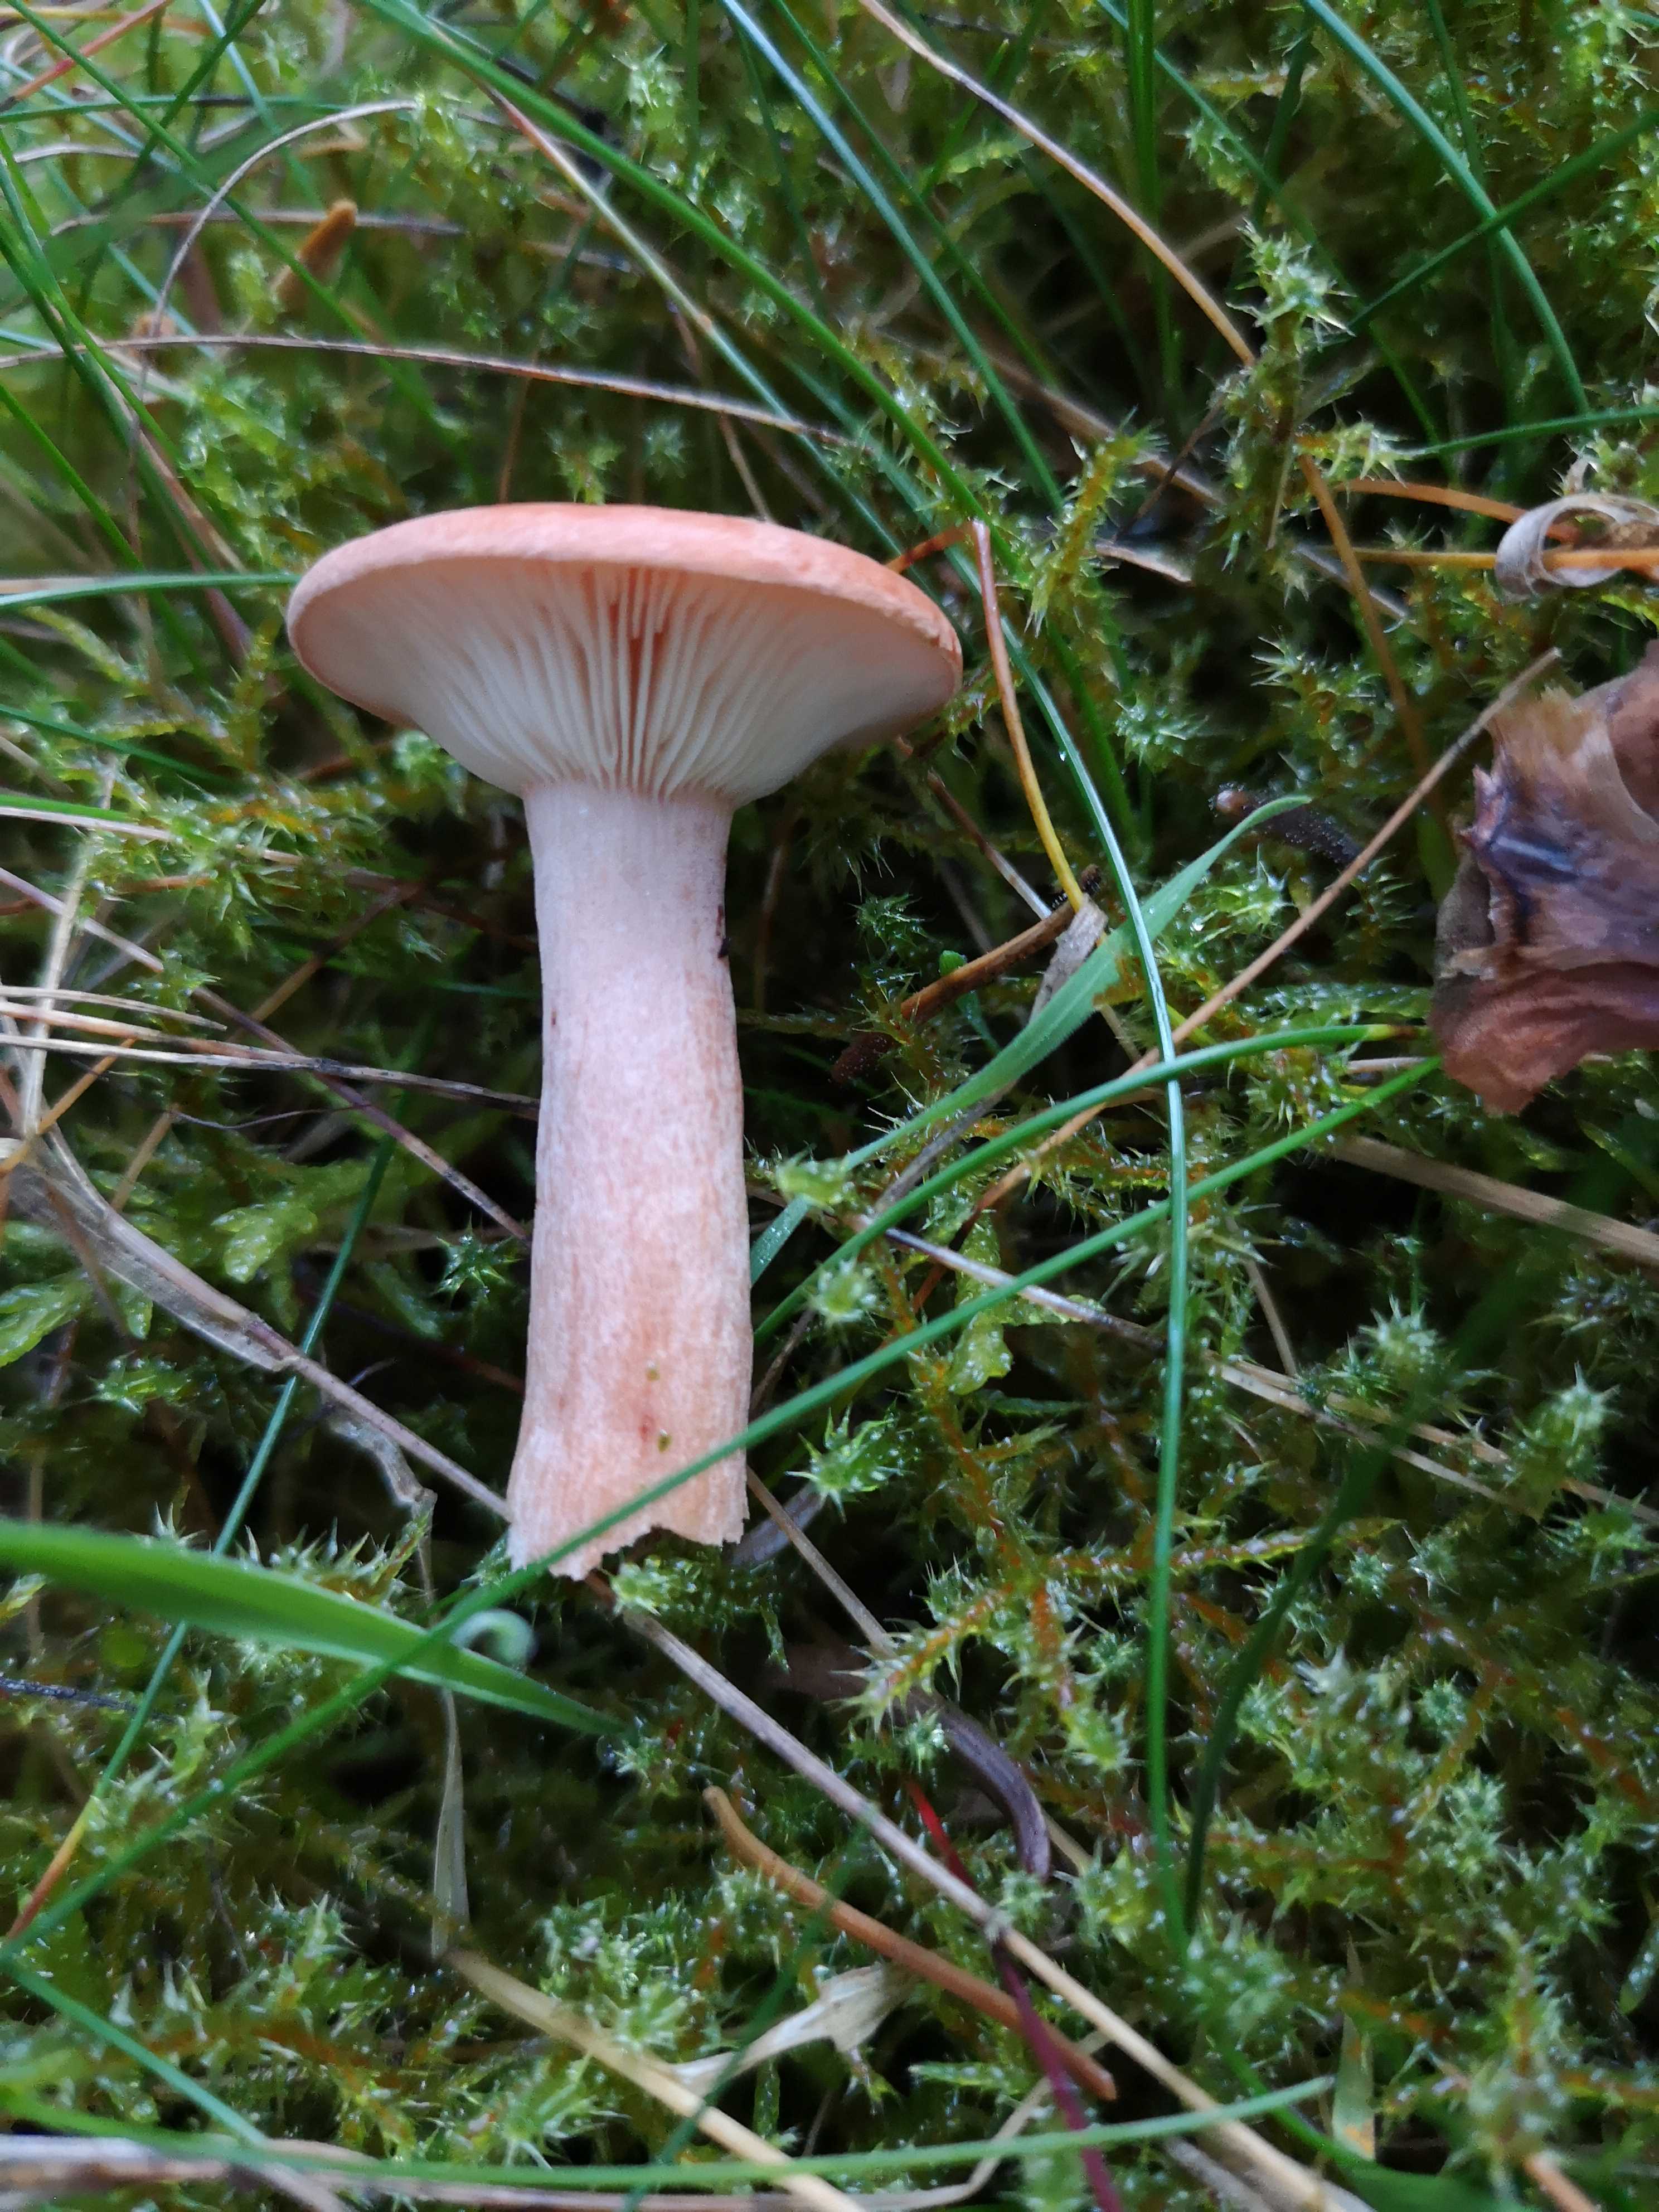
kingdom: Fungi
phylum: Basidiomycota
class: Agaricomycetes
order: Russulales
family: Russulaceae
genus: Lactarius
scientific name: Lactarius rufus
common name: rødbrun mælkehat
